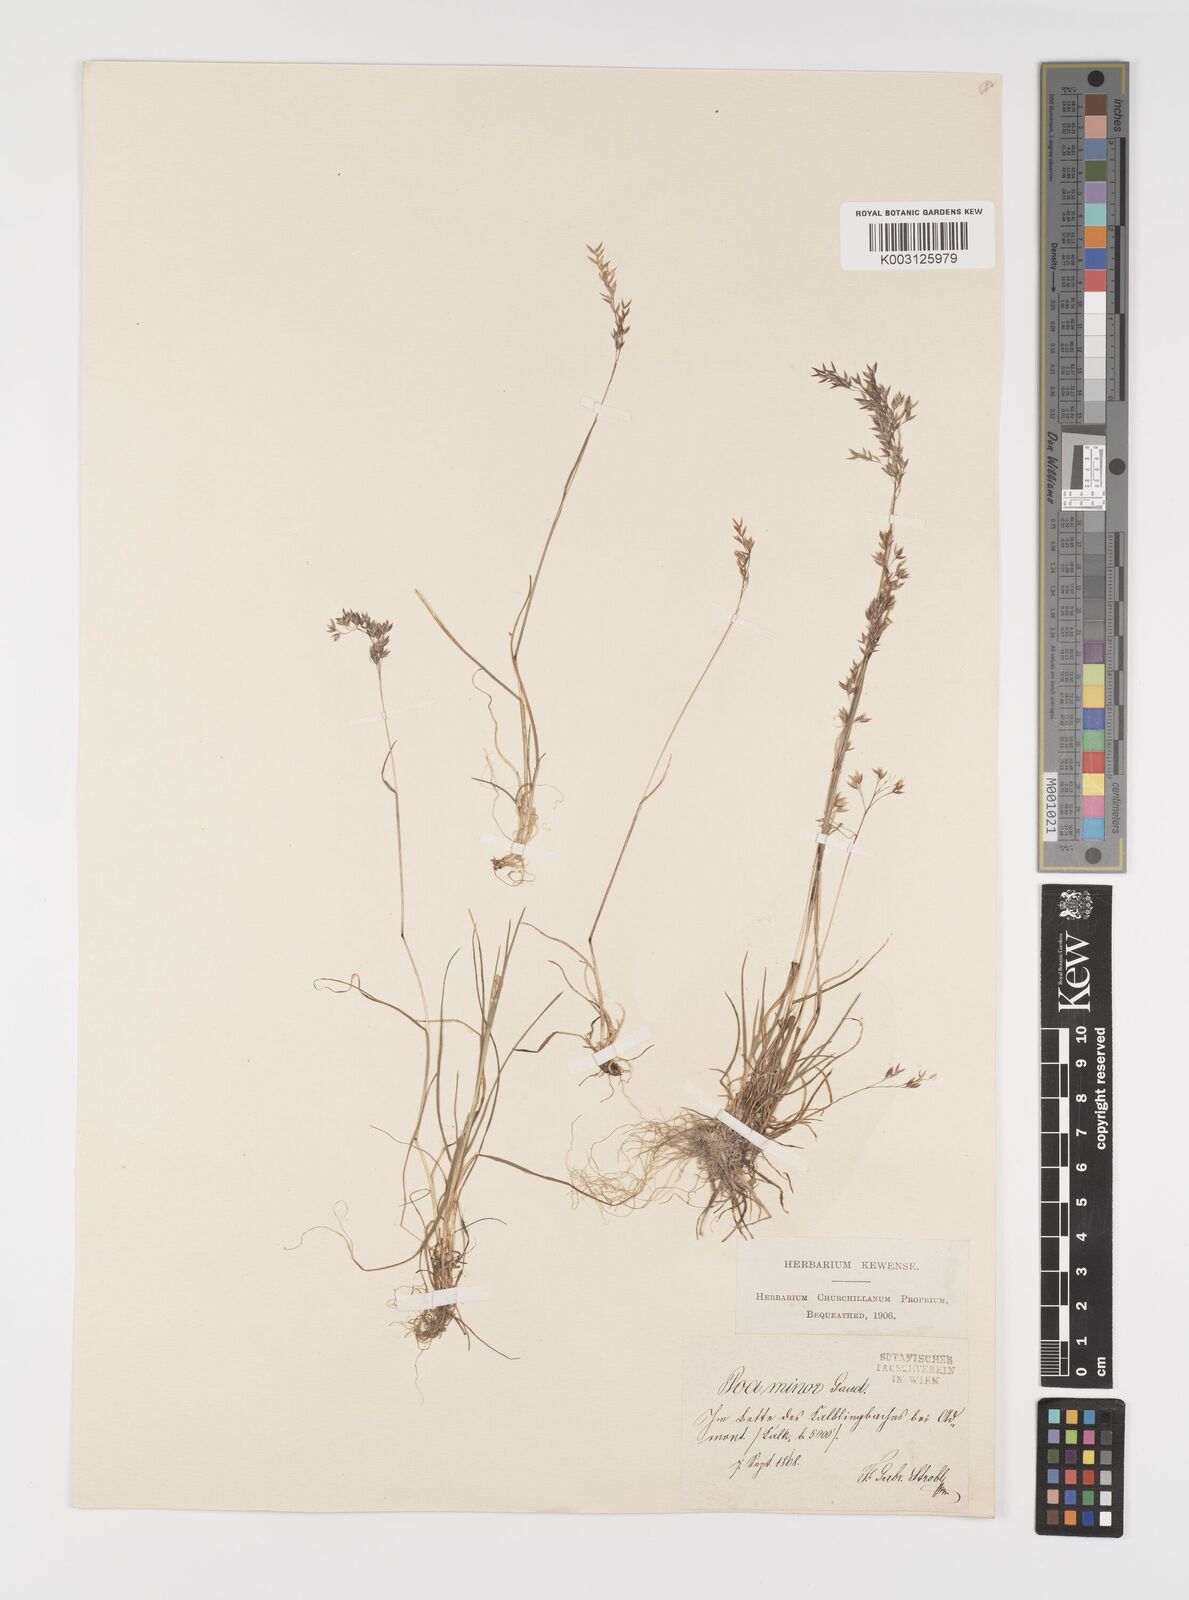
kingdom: Plantae
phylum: Tracheophyta
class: Liliopsida
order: Poales
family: Poaceae
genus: Poa
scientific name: Poa minor
